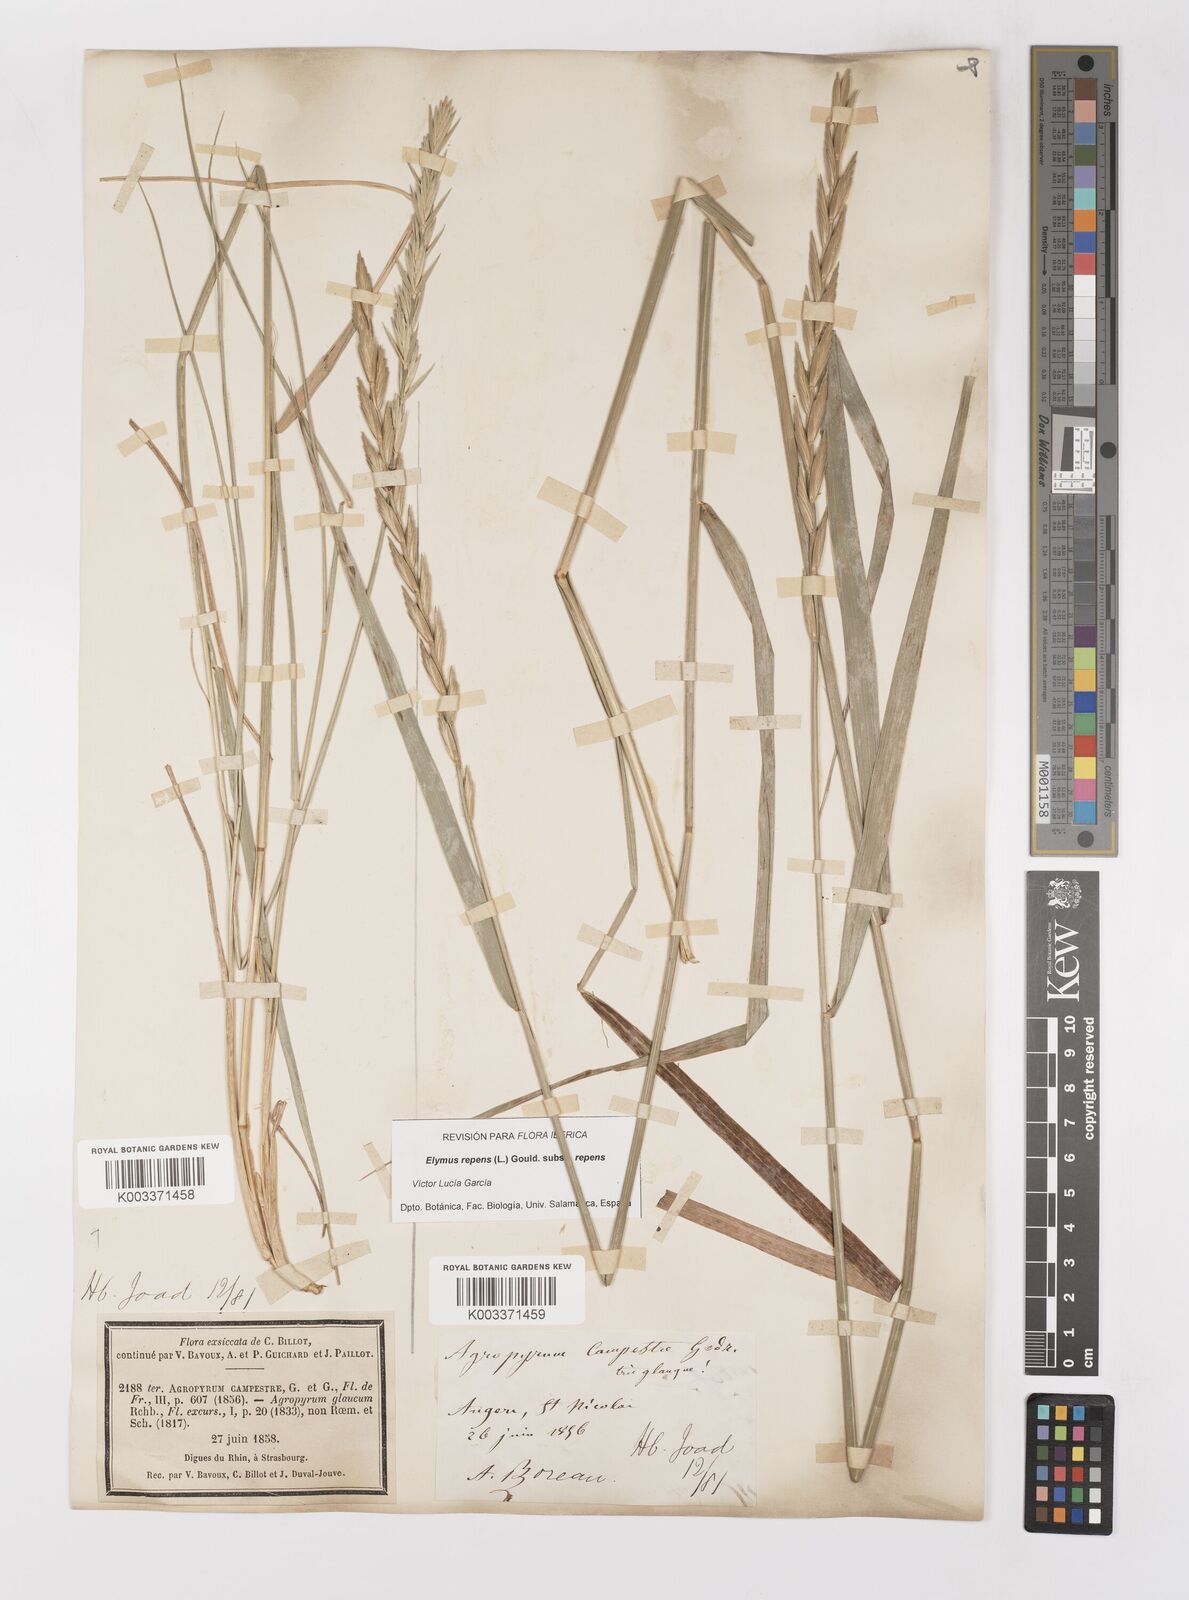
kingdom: Plantae
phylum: Tracheophyta
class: Liliopsida
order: Poales
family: Poaceae
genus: Elymus
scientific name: Elymus repens
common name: Quackgrass
